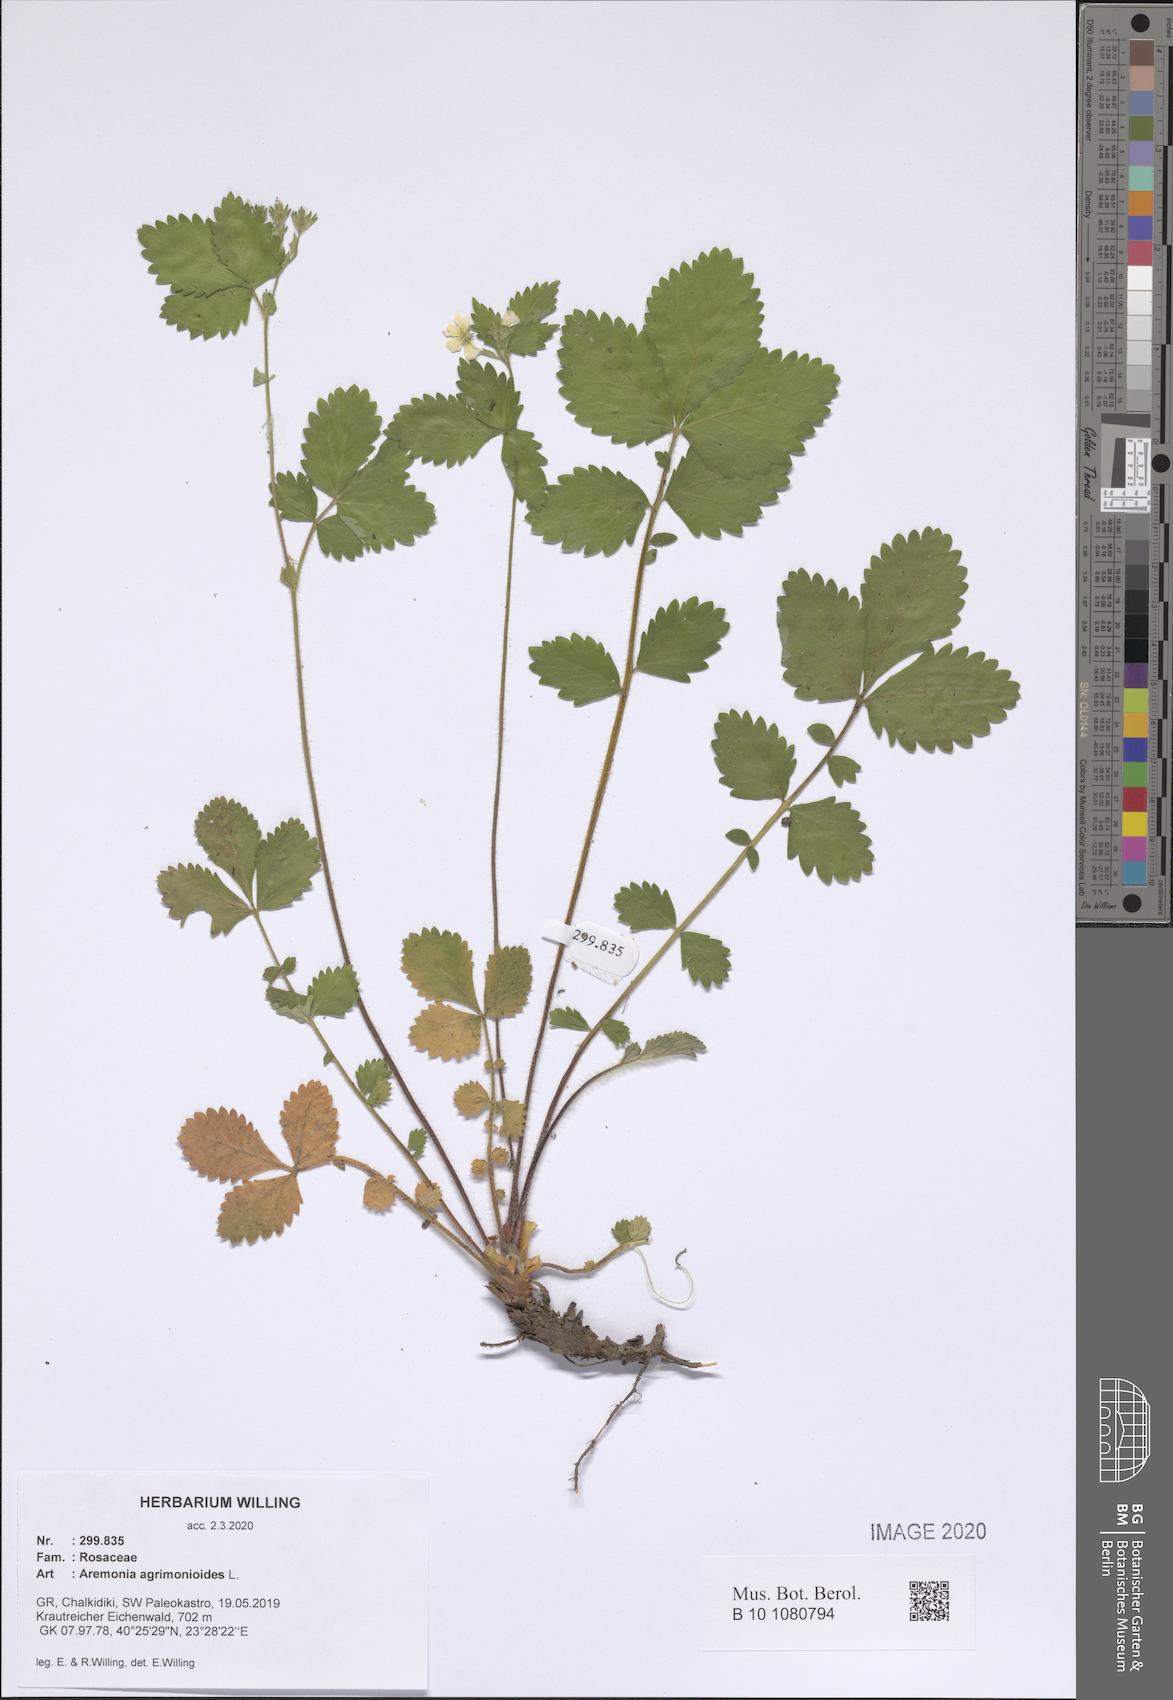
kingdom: Plantae
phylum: Tracheophyta
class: Magnoliopsida
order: Rosales
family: Rosaceae
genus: Aremonia
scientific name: Aremonia agrimonioides
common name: Bastard agrimony
